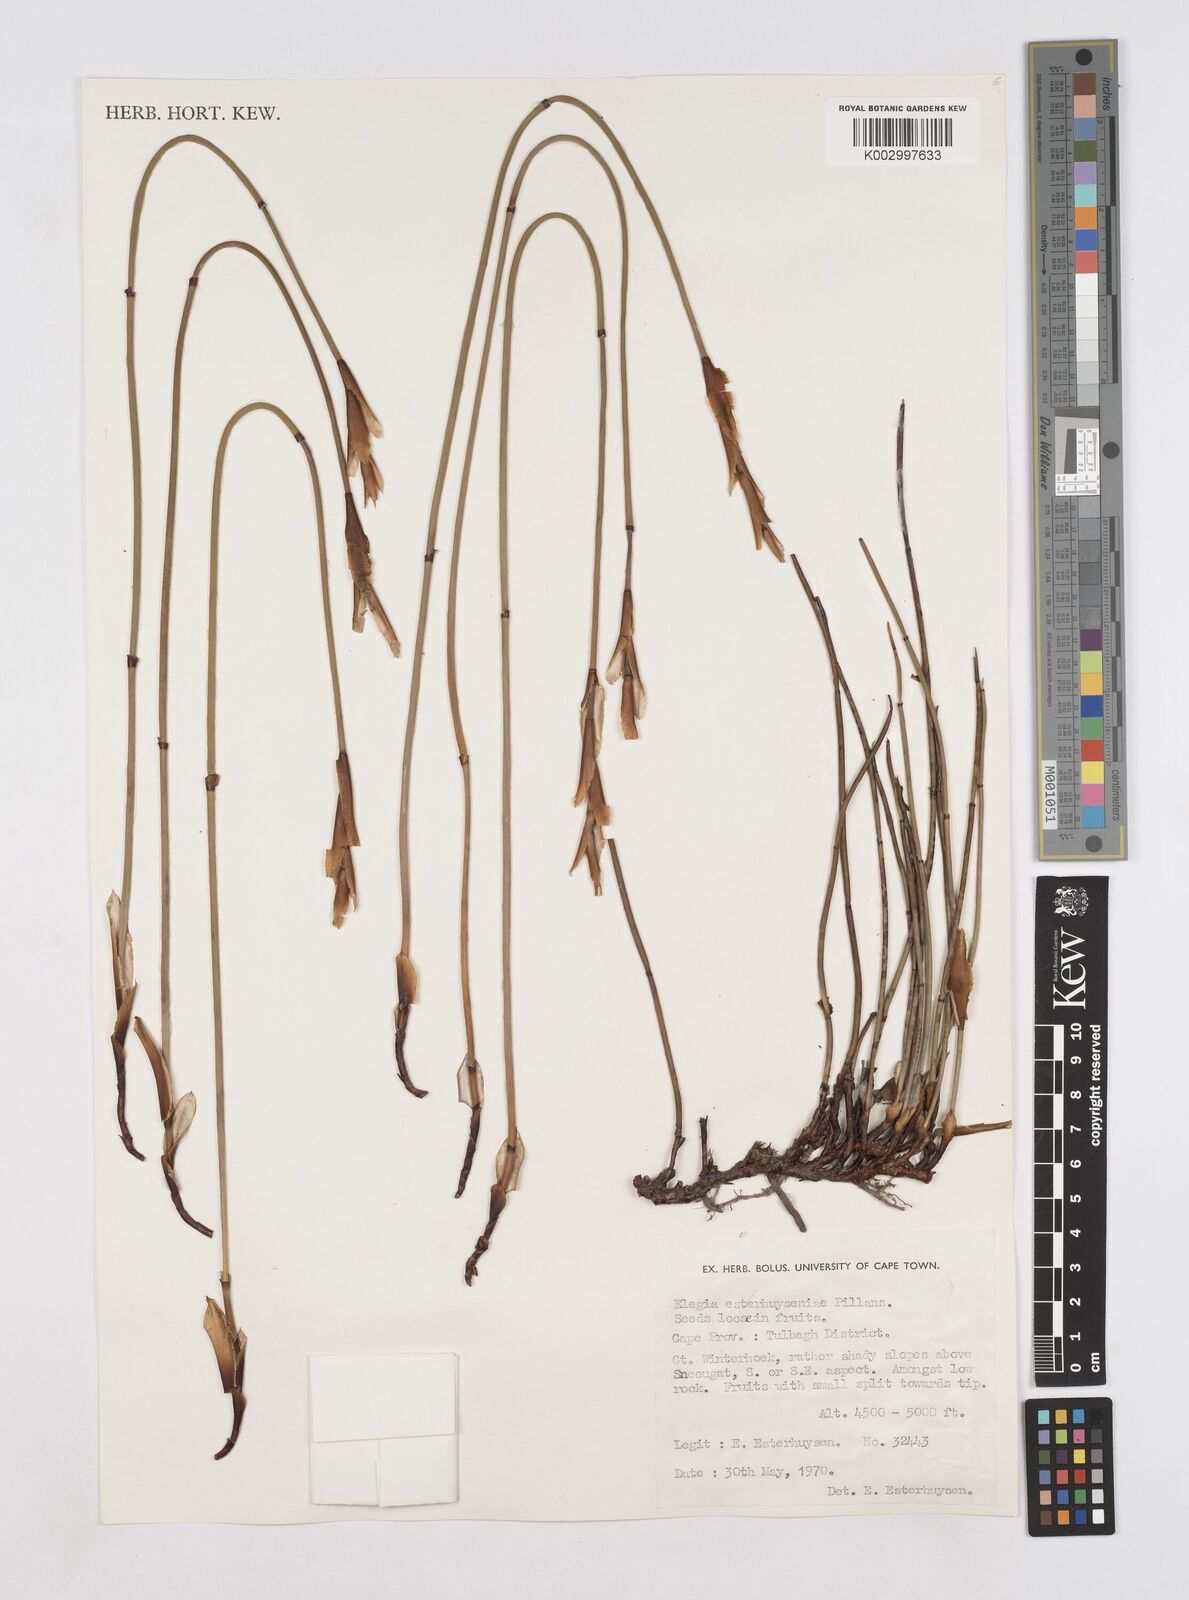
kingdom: Plantae
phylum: Tracheophyta
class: Liliopsida
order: Poales
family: Restionaceae
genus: Elegia
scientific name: Elegia esterhuyseniae
